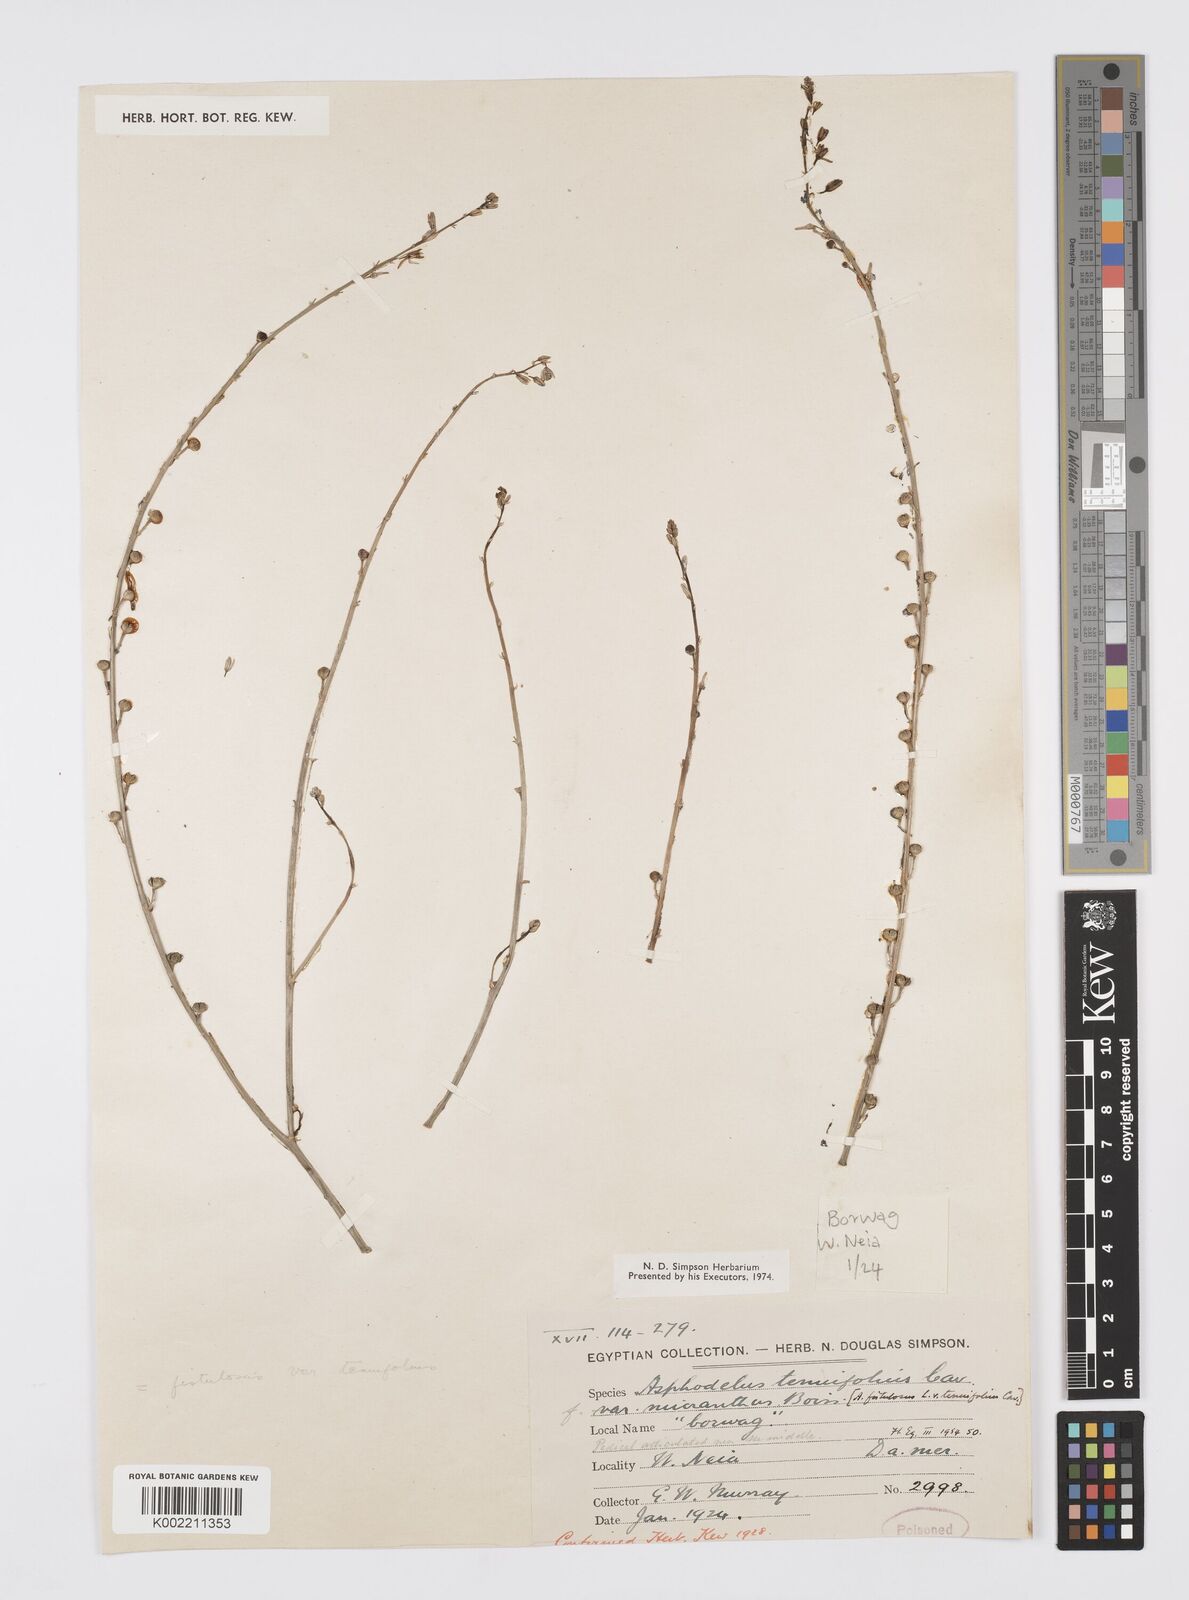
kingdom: Plantae
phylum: Tracheophyta
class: Liliopsida
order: Asparagales
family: Asphodelaceae
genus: Asphodelus
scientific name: Asphodelus tenuifolius
